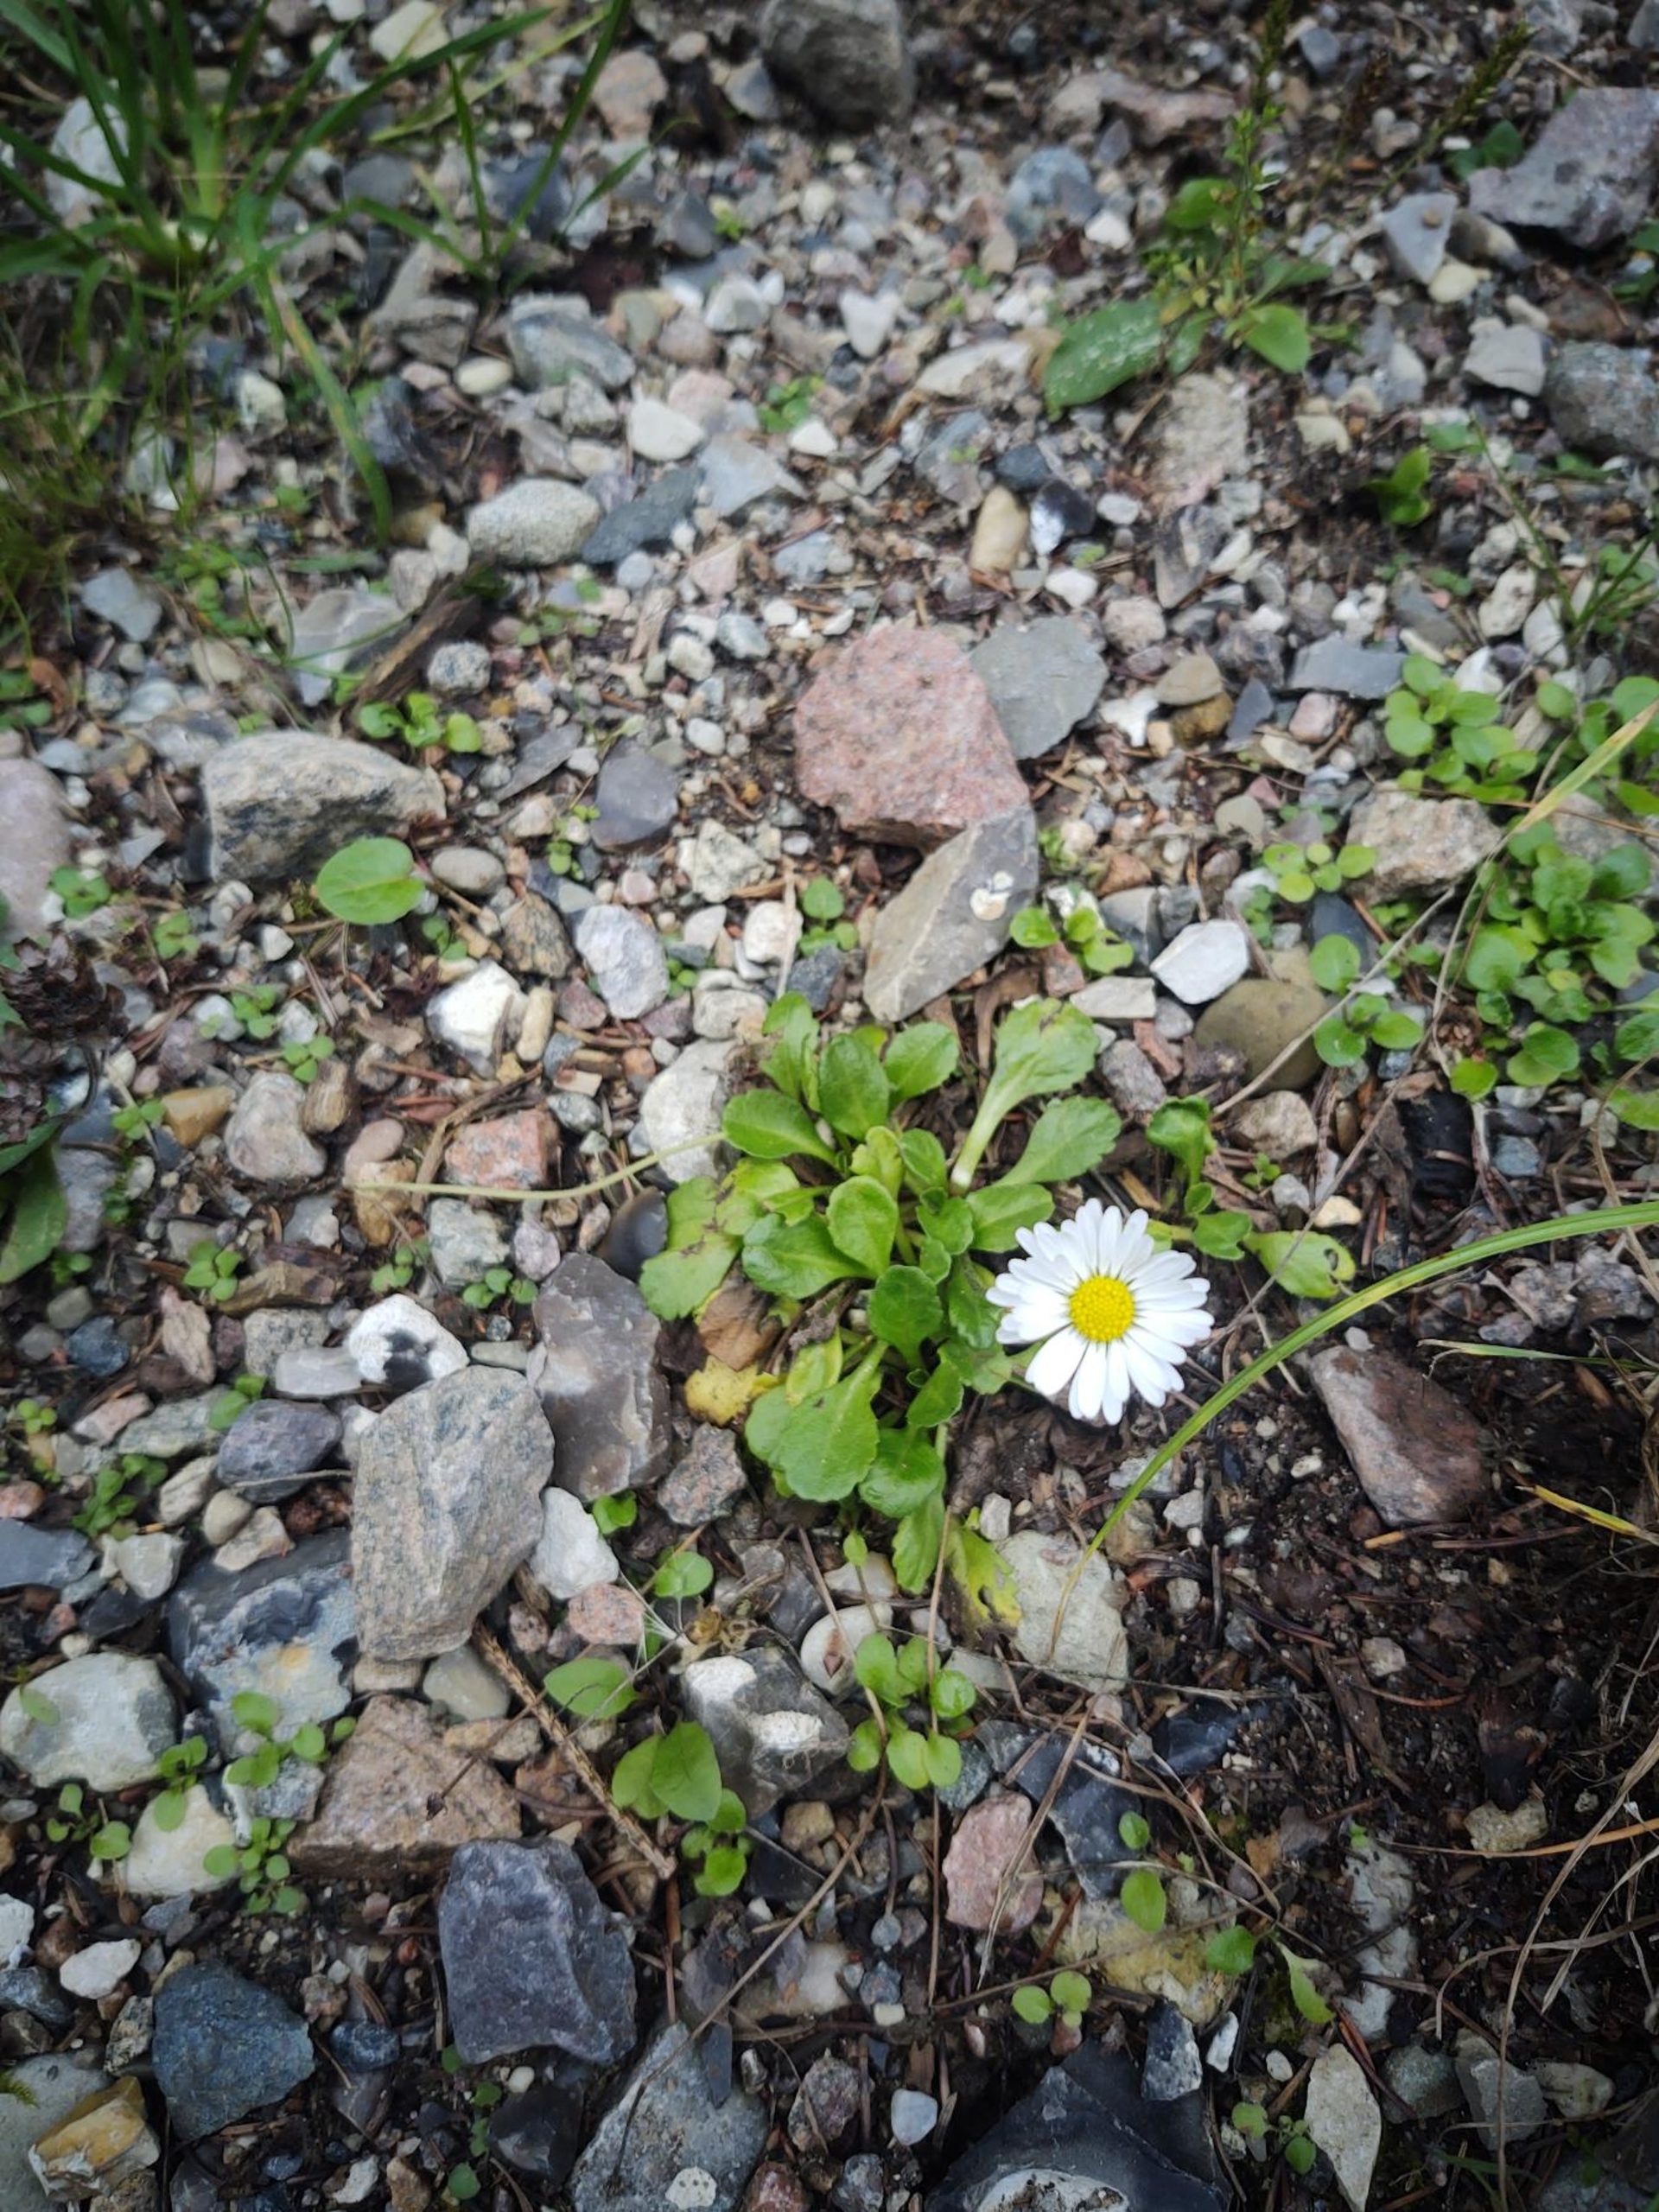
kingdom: Plantae
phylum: Tracheophyta
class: Magnoliopsida
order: Asterales
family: Asteraceae
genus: Bellis
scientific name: Bellis perennis
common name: Tusindfryd
